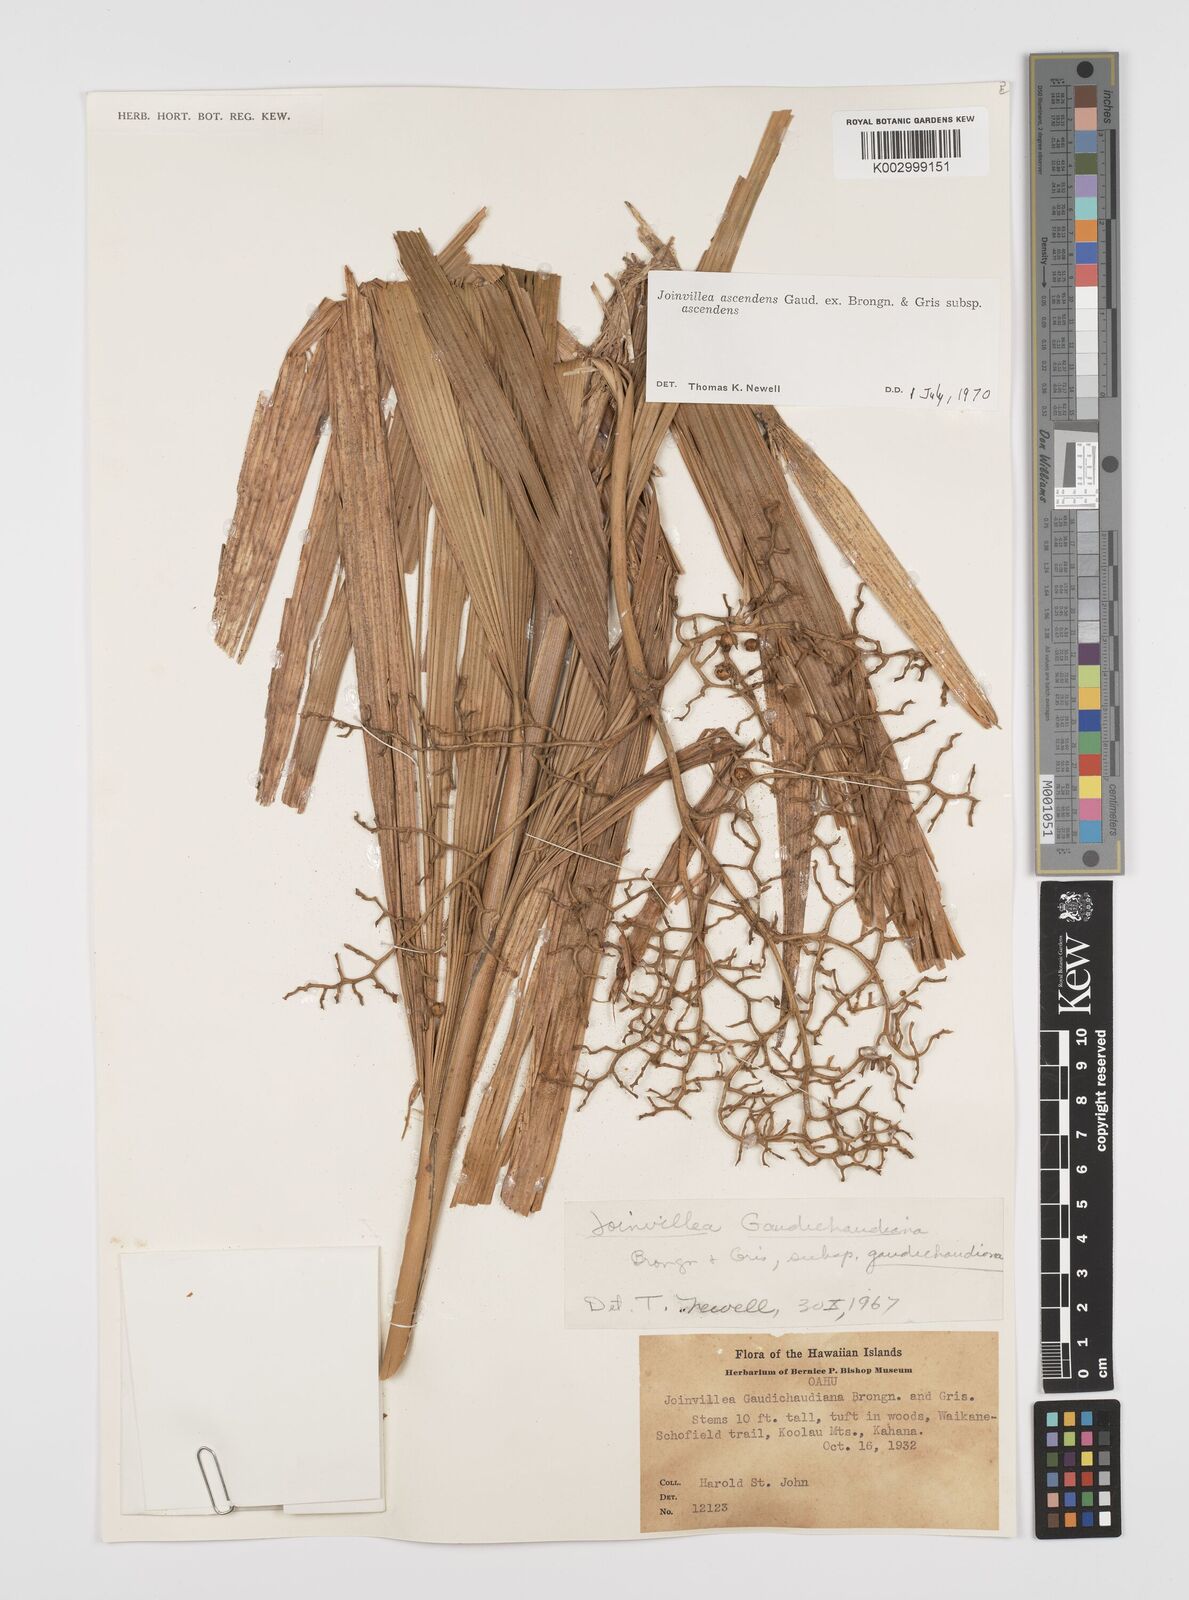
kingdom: Plantae
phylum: Tracheophyta
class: Liliopsida
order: Poales
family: Joinvilleaceae
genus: Joinvillea
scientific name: Joinvillea ascendens
